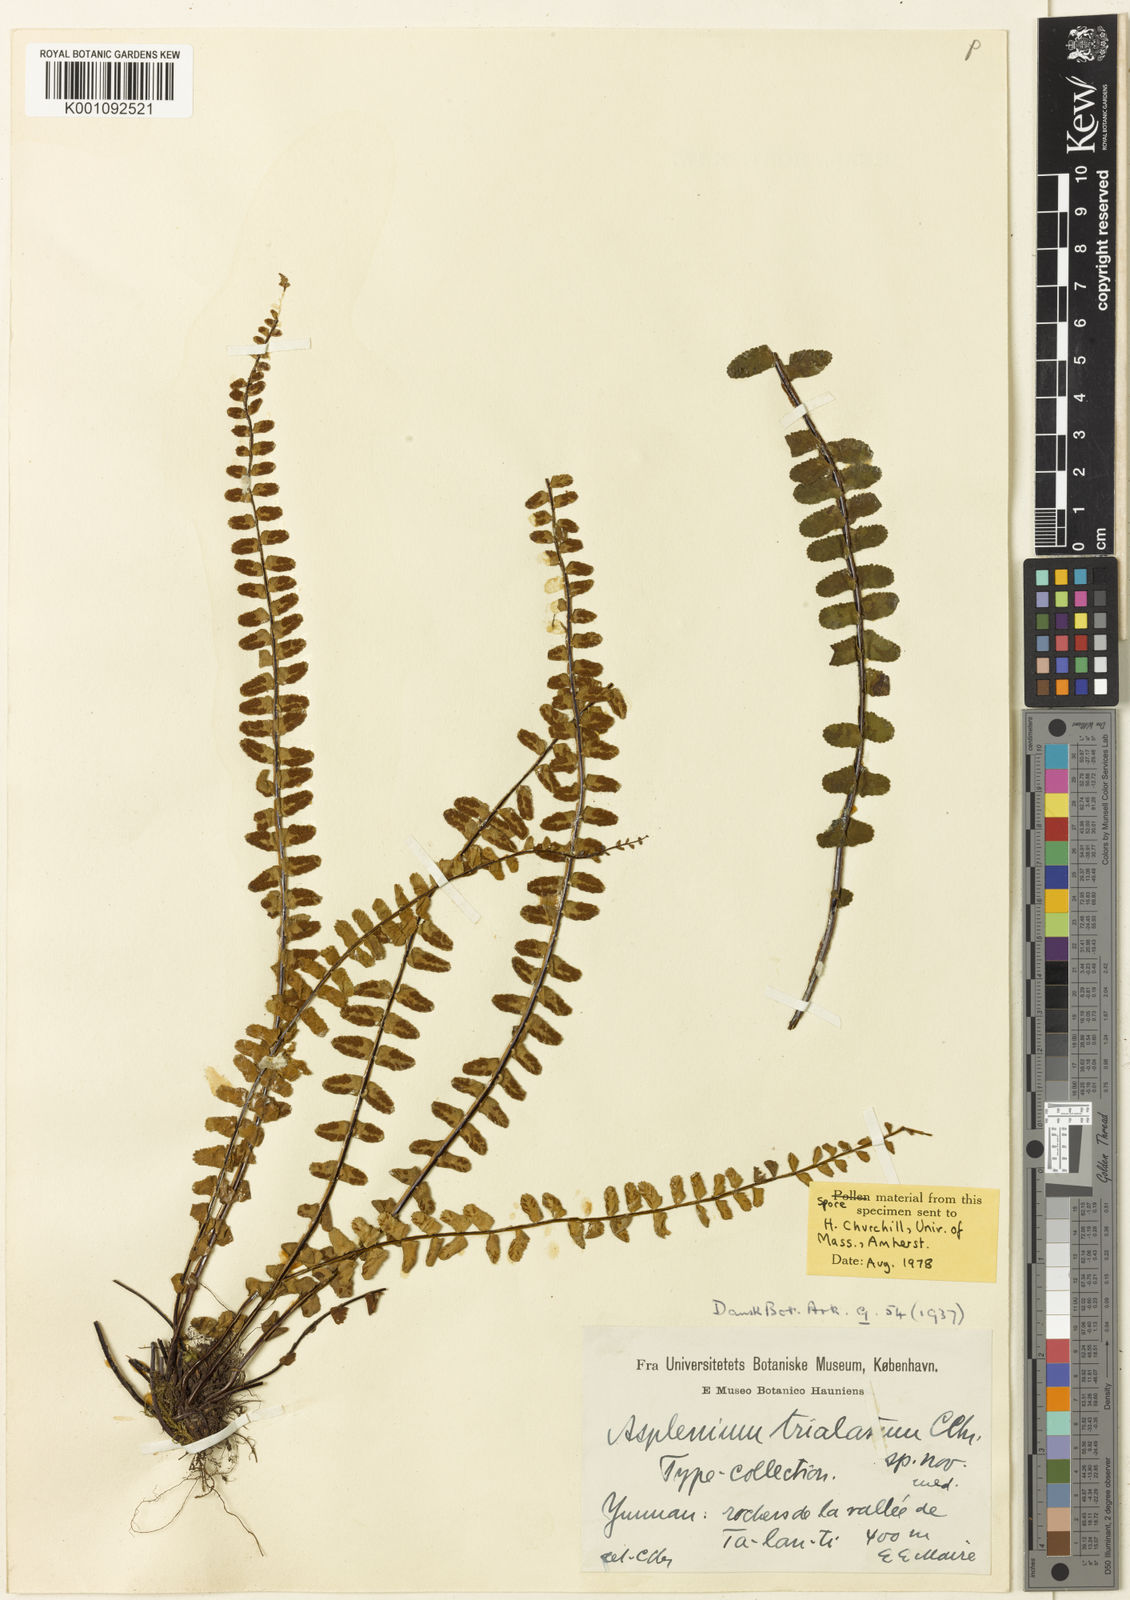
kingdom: Plantae
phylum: Tracheophyta
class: Polypodiopsida
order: Polypodiales
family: Aspleniaceae
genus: Asplenium
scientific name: Asplenium tripteropus
